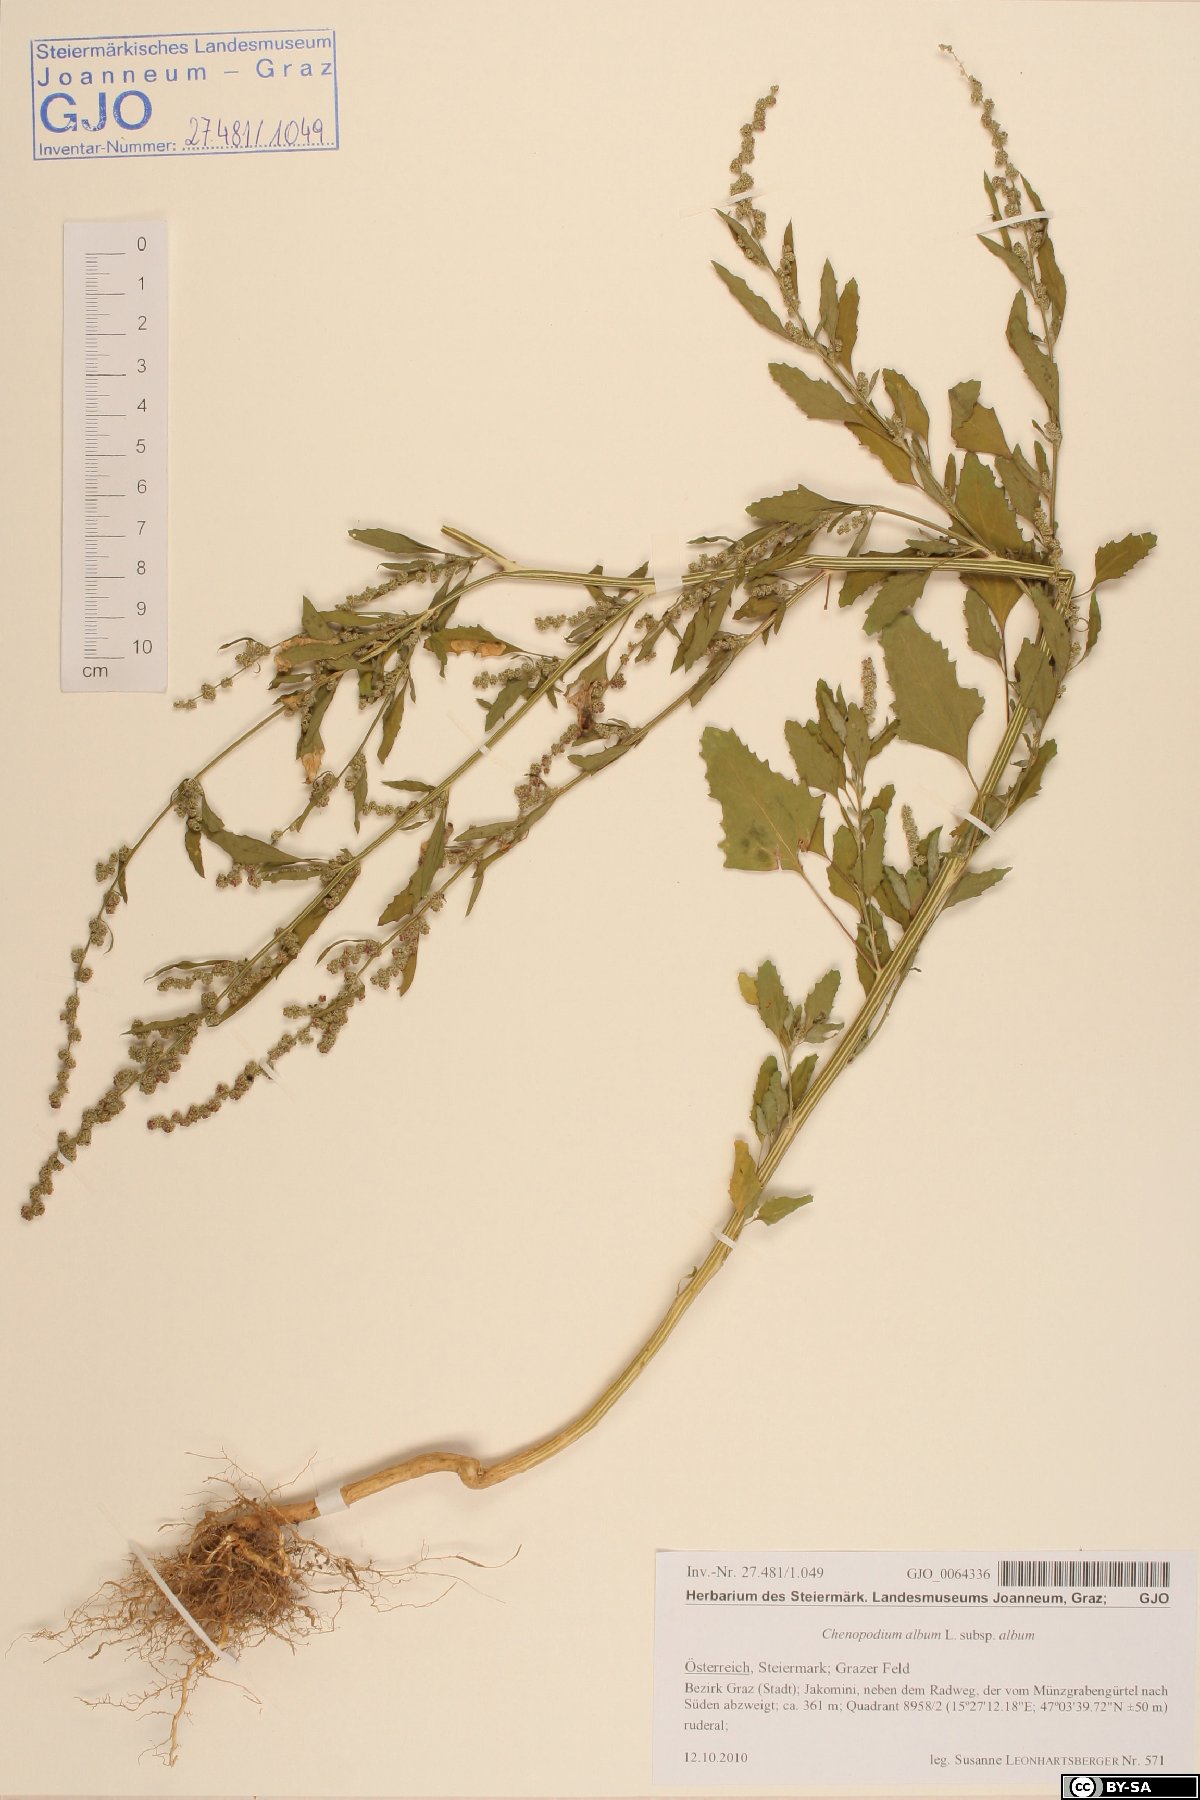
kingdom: Plantae
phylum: Tracheophyta
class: Magnoliopsida
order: Caryophyllales
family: Amaranthaceae
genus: Chenopodium
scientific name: Chenopodium album
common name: Fat-hen
